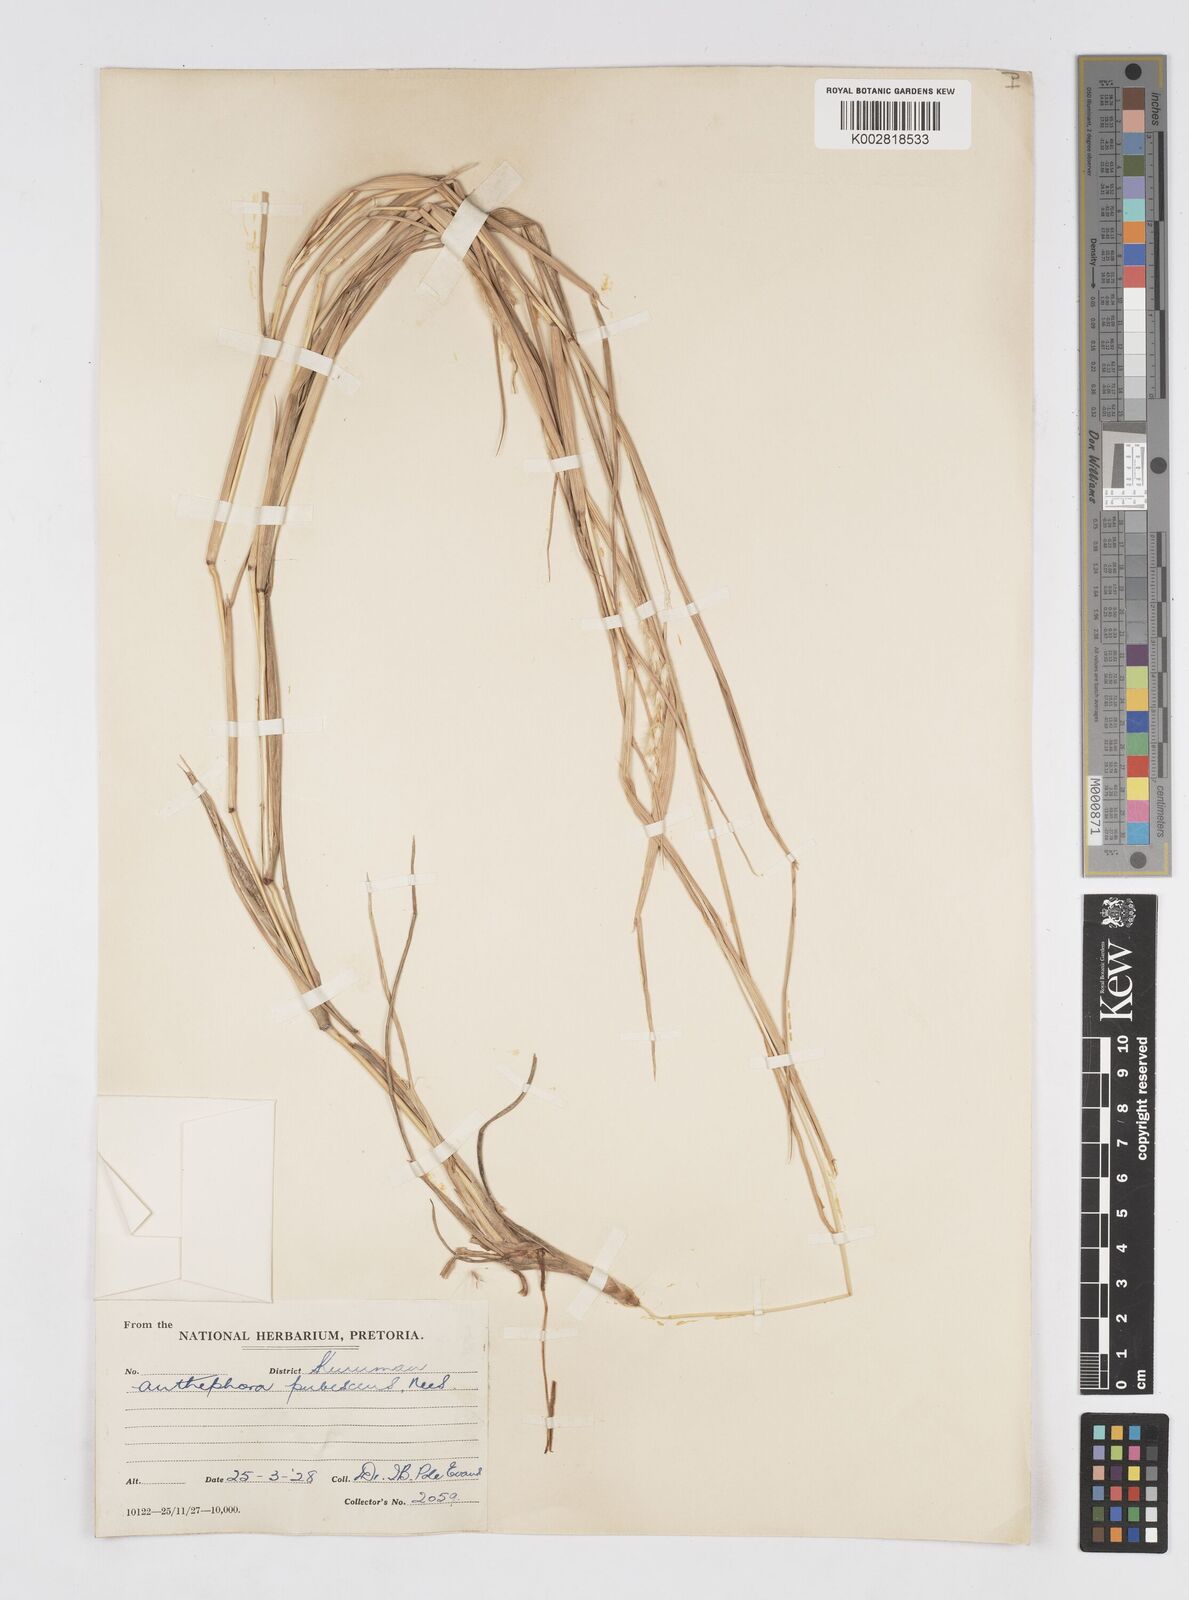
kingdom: Plantae
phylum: Tracheophyta
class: Liliopsida
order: Poales
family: Poaceae
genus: Anthephora
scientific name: Anthephora pubescens
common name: Wool grass
